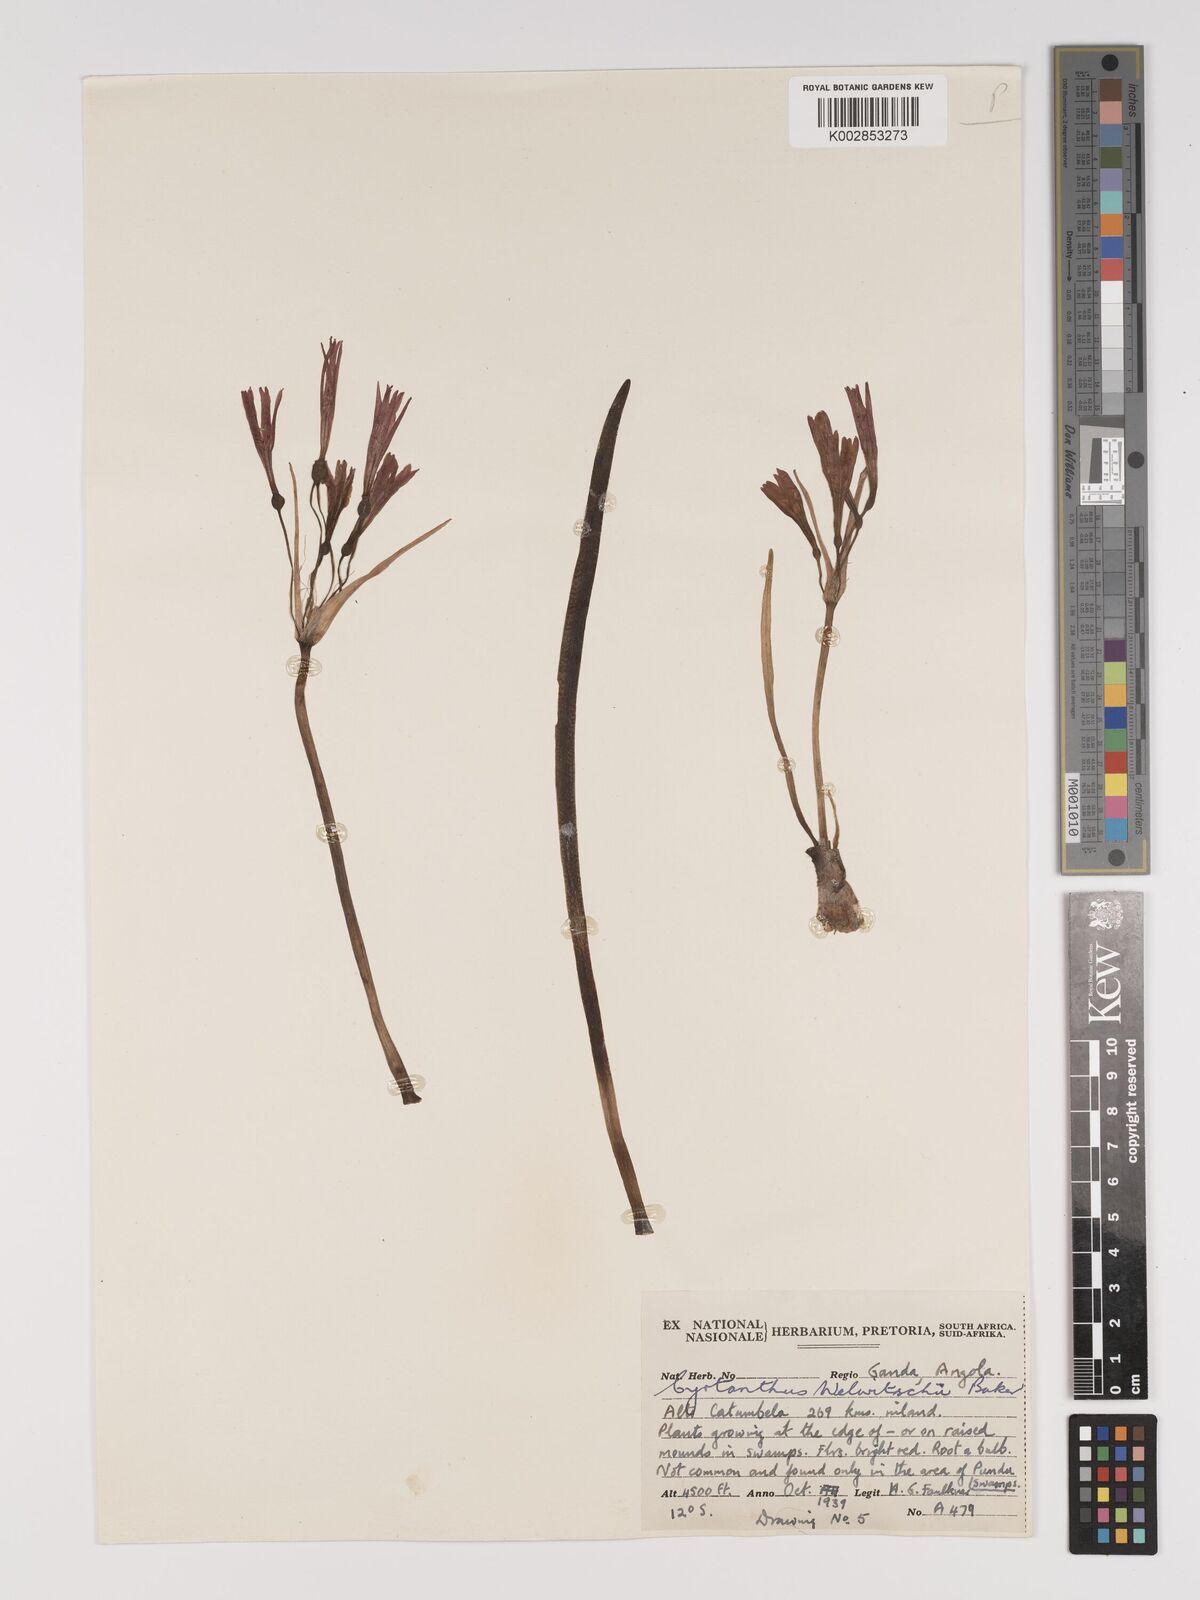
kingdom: Plantae
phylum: Tracheophyta
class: Liliopsida
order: Asparagales
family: Amaryllidaceae
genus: Cyrtanthus
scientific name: Cyrtanthus welwitschii
